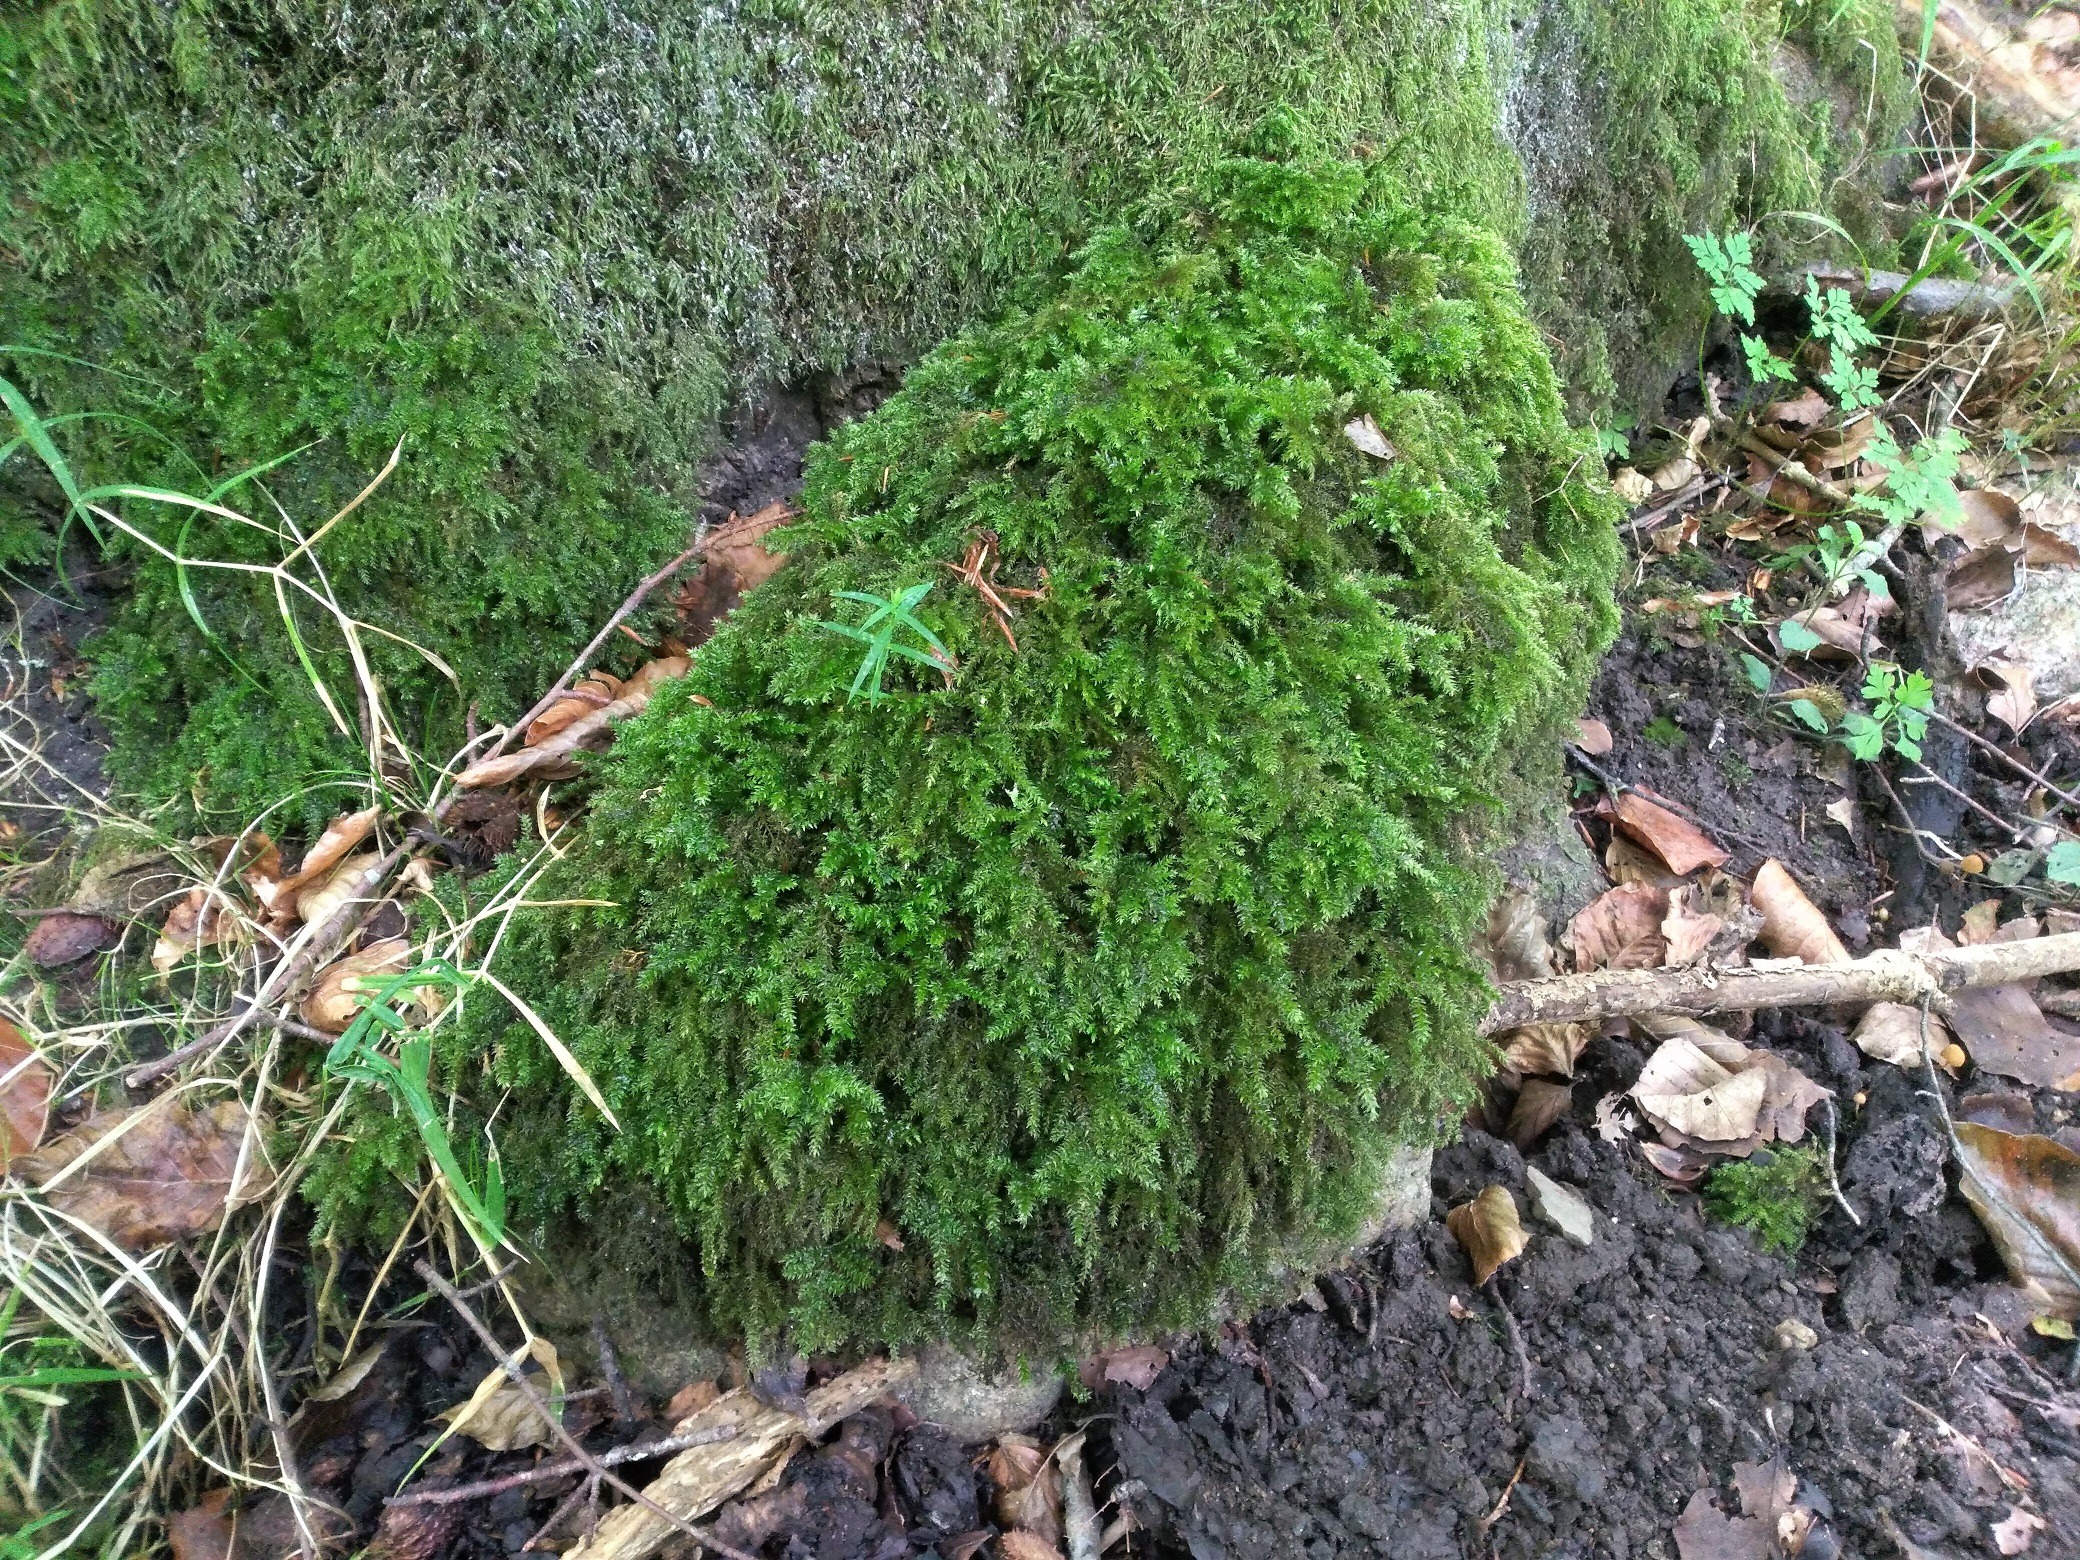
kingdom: Plantae
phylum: Bryophyta
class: Bryopsida
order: Hypnales
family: Neckeraceae
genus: Thamnobryum
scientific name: Thamnobryum alopecurum
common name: Mat bækkost
